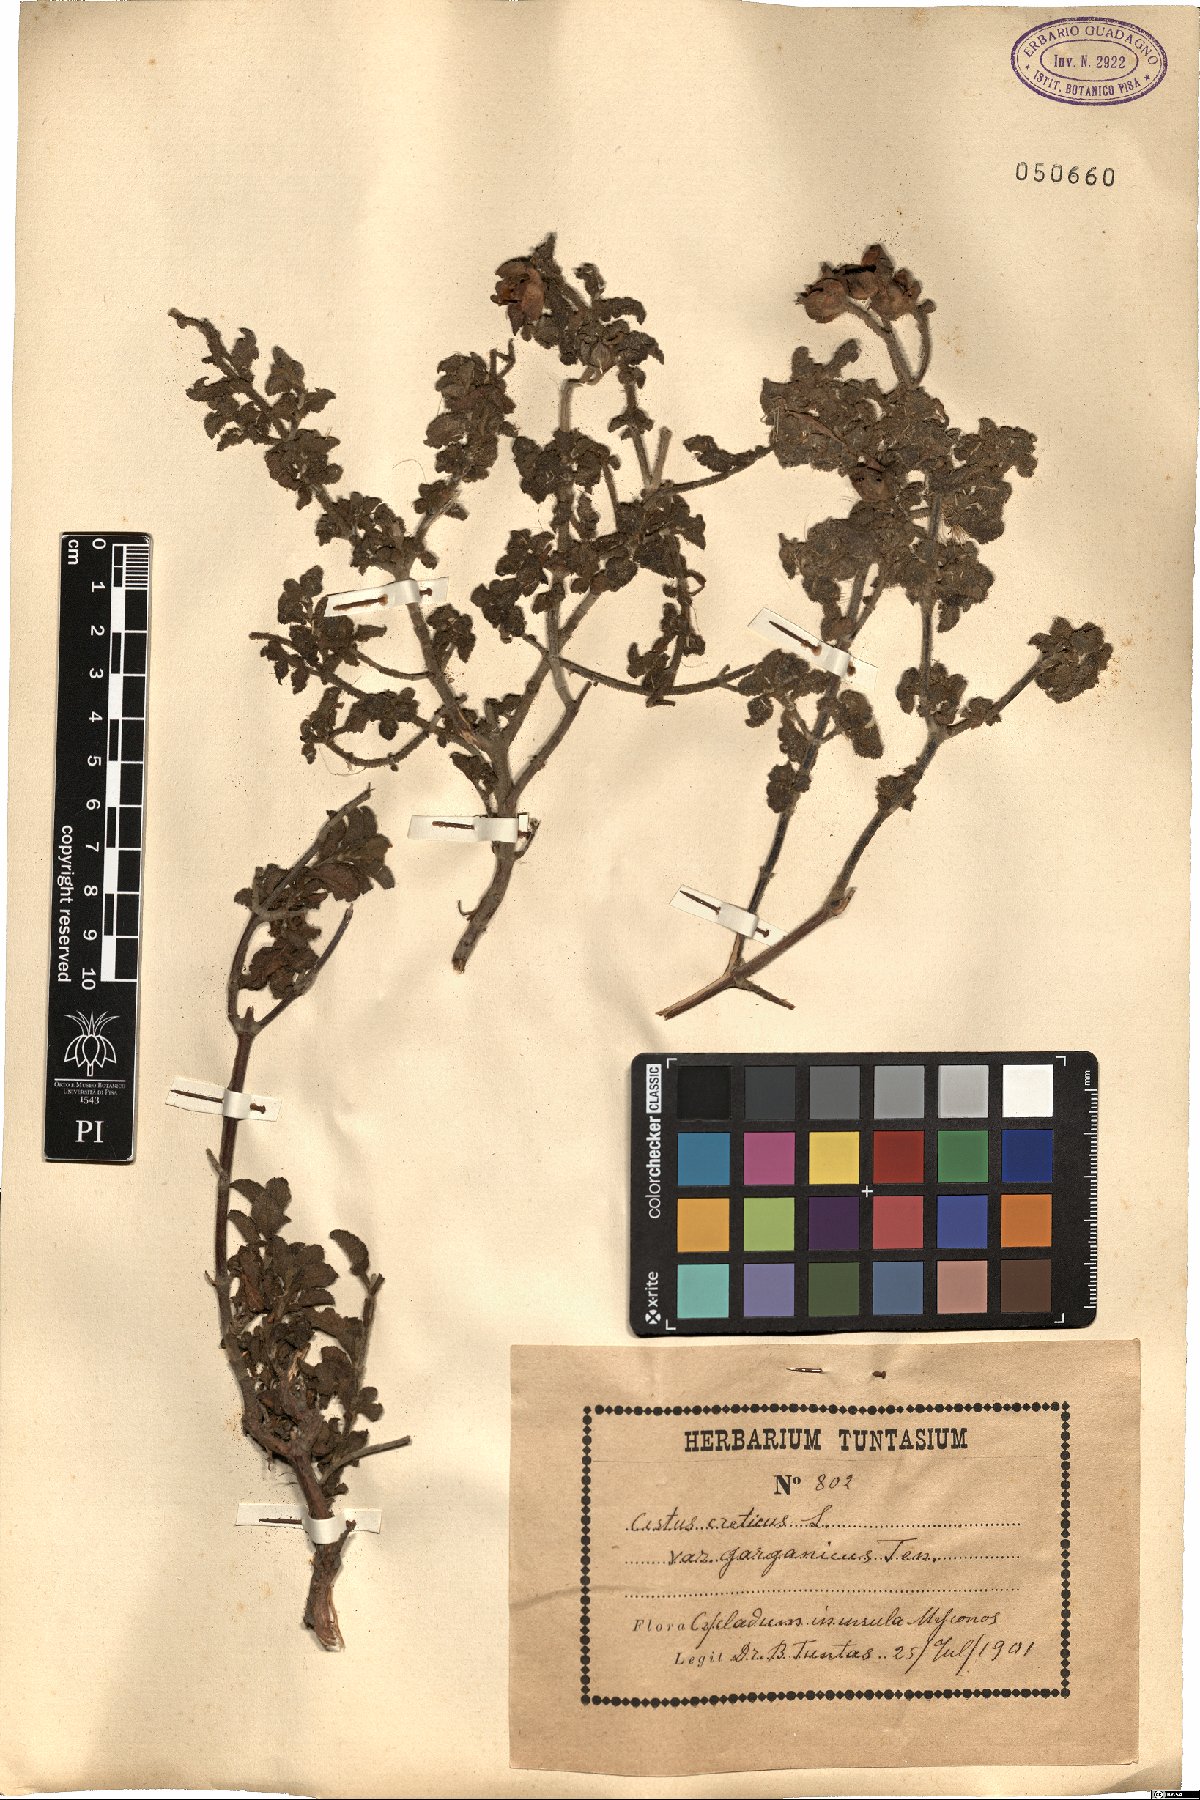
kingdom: Plantae
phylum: Tracheophyta
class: Magnoliopsida
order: Malvales
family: Cistaceae
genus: Cistus
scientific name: Cistus creticus
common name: Cretan rockrose
